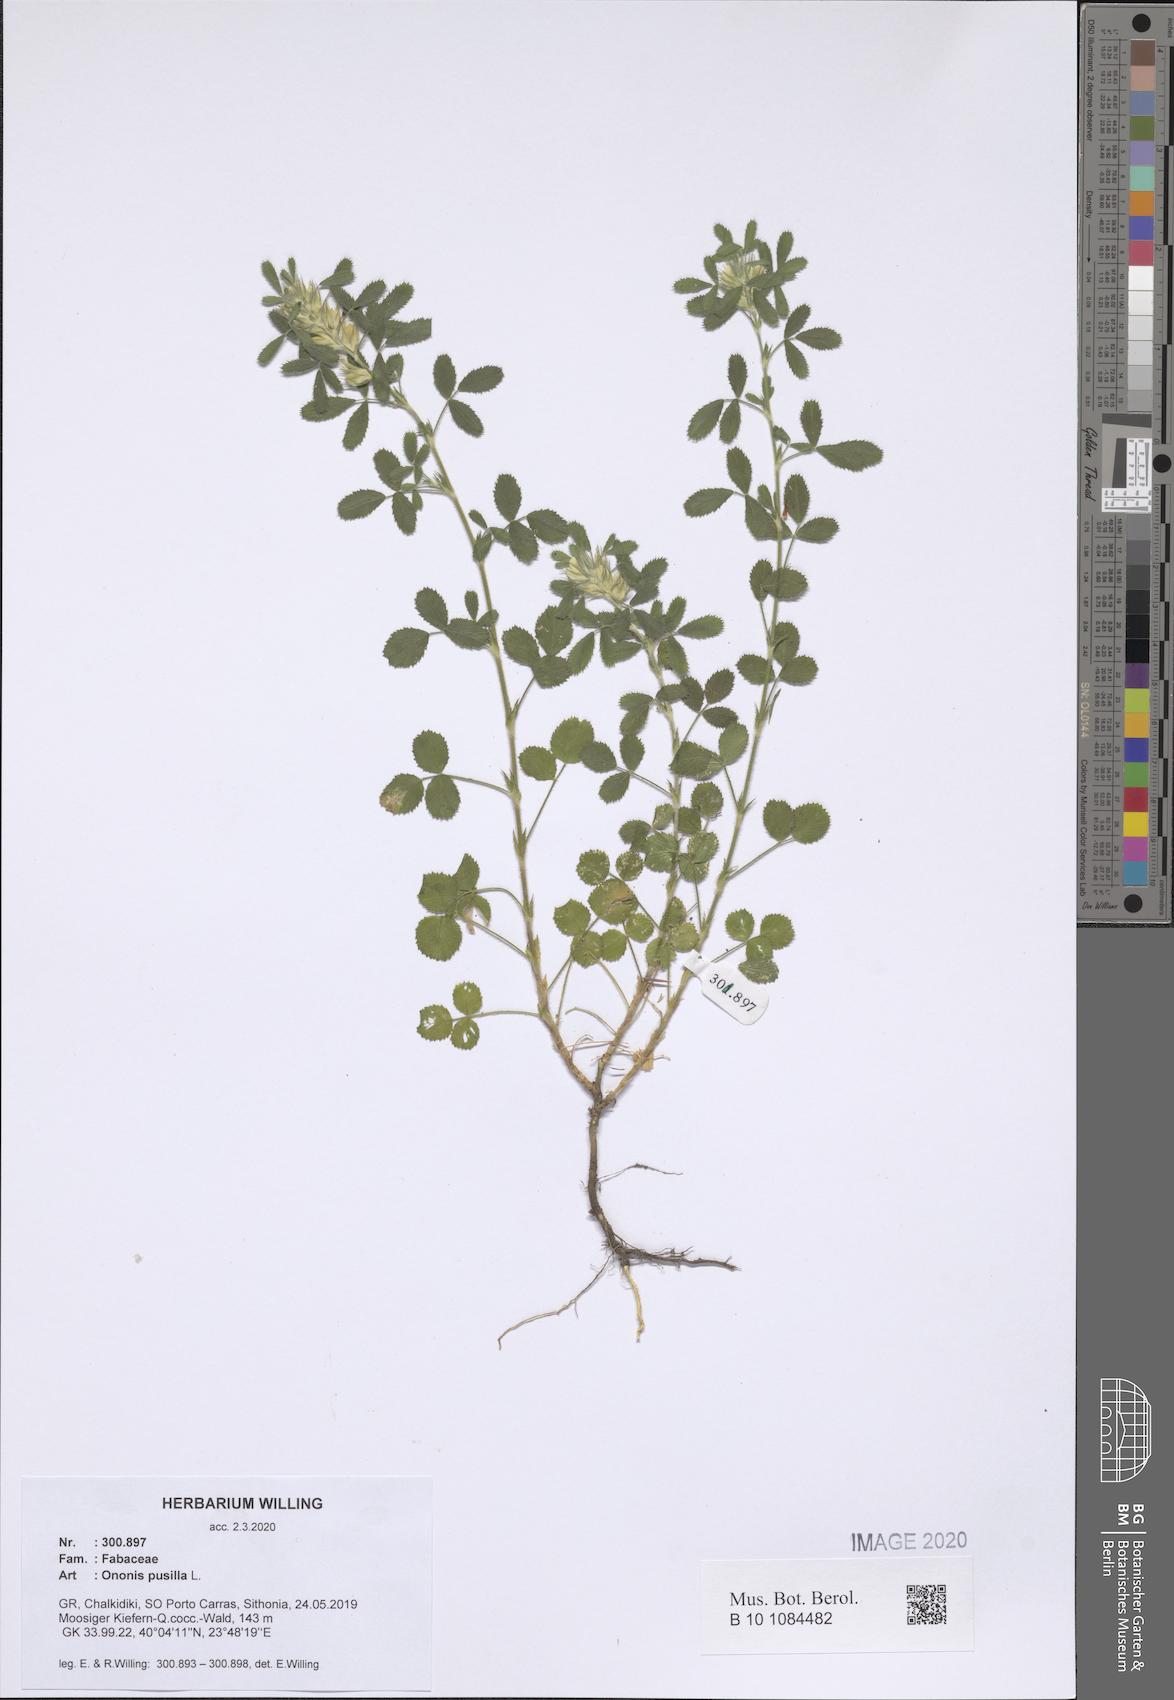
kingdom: Plantae
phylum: Tracheophyta
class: Magnoliopsida
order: Fabales
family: Fabaceae
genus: Ononis
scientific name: Ononis pusilla
